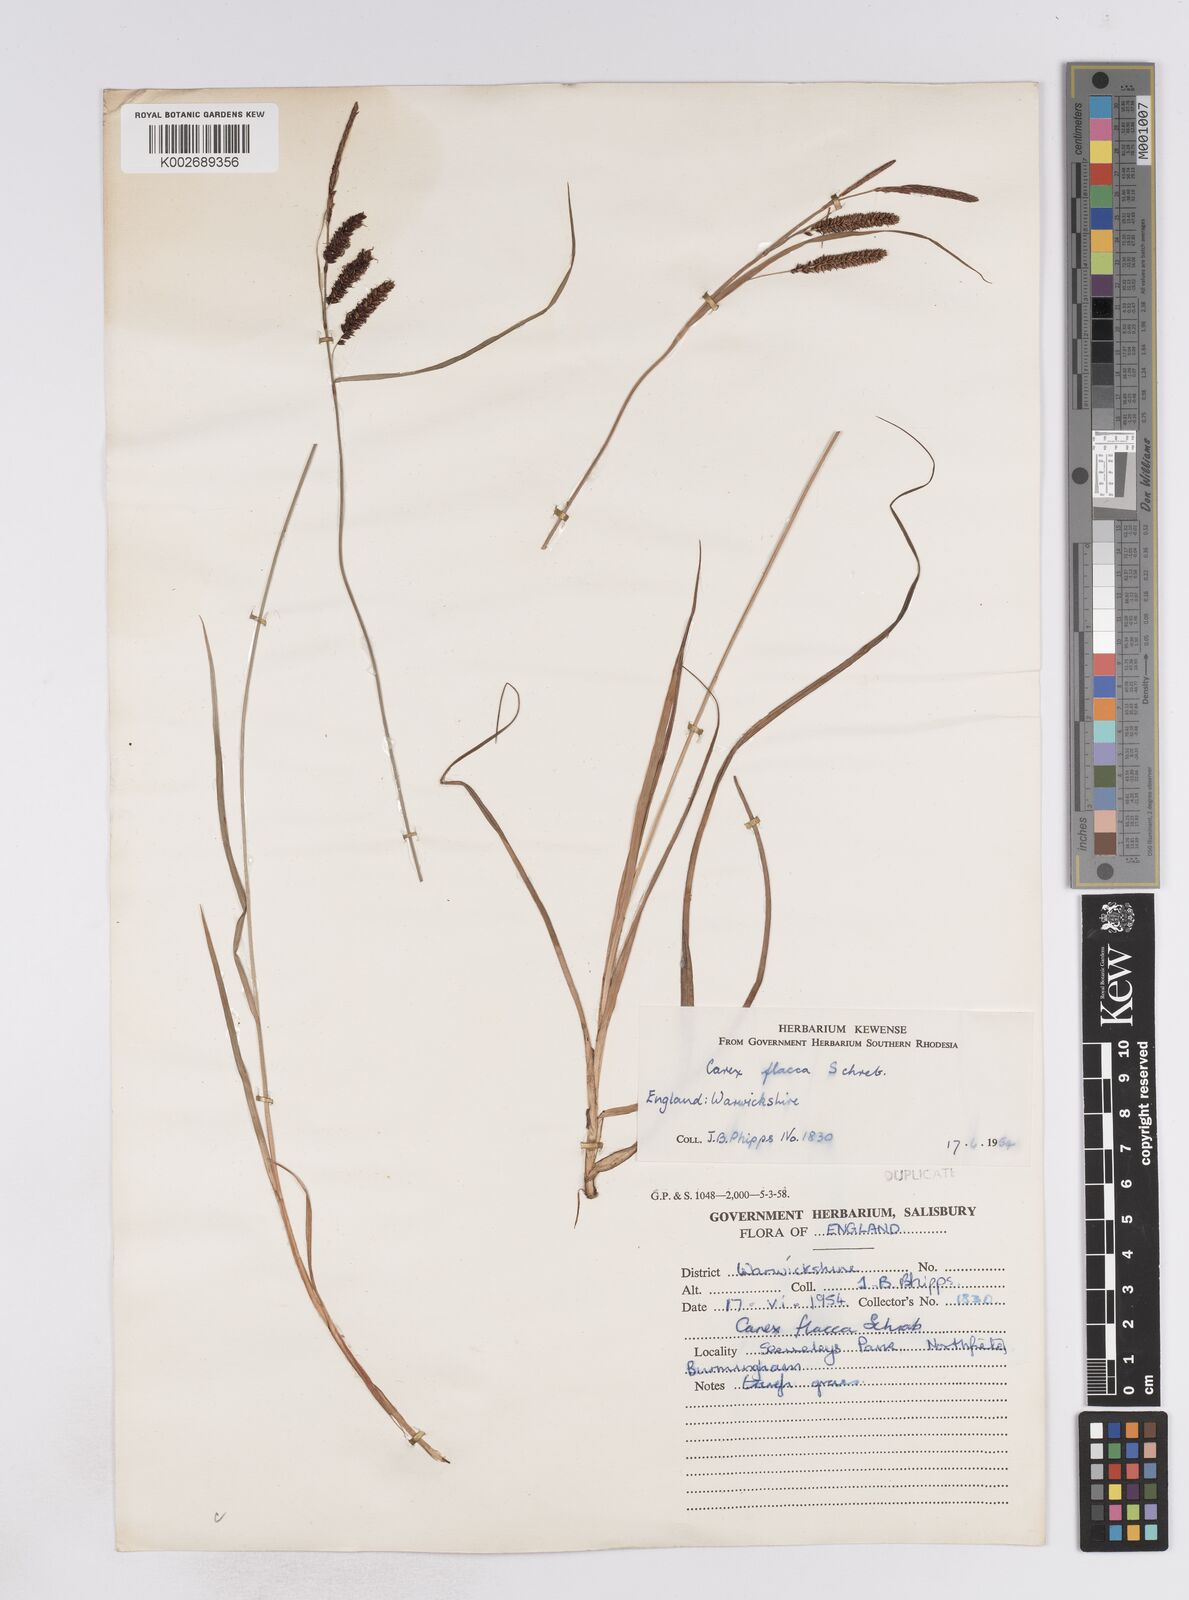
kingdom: Plantae
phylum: Tracheophyta
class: Liliopsida
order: Poales
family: Cyperaceae
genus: Carex
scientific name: Carex flacca
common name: Glaucous sedge
